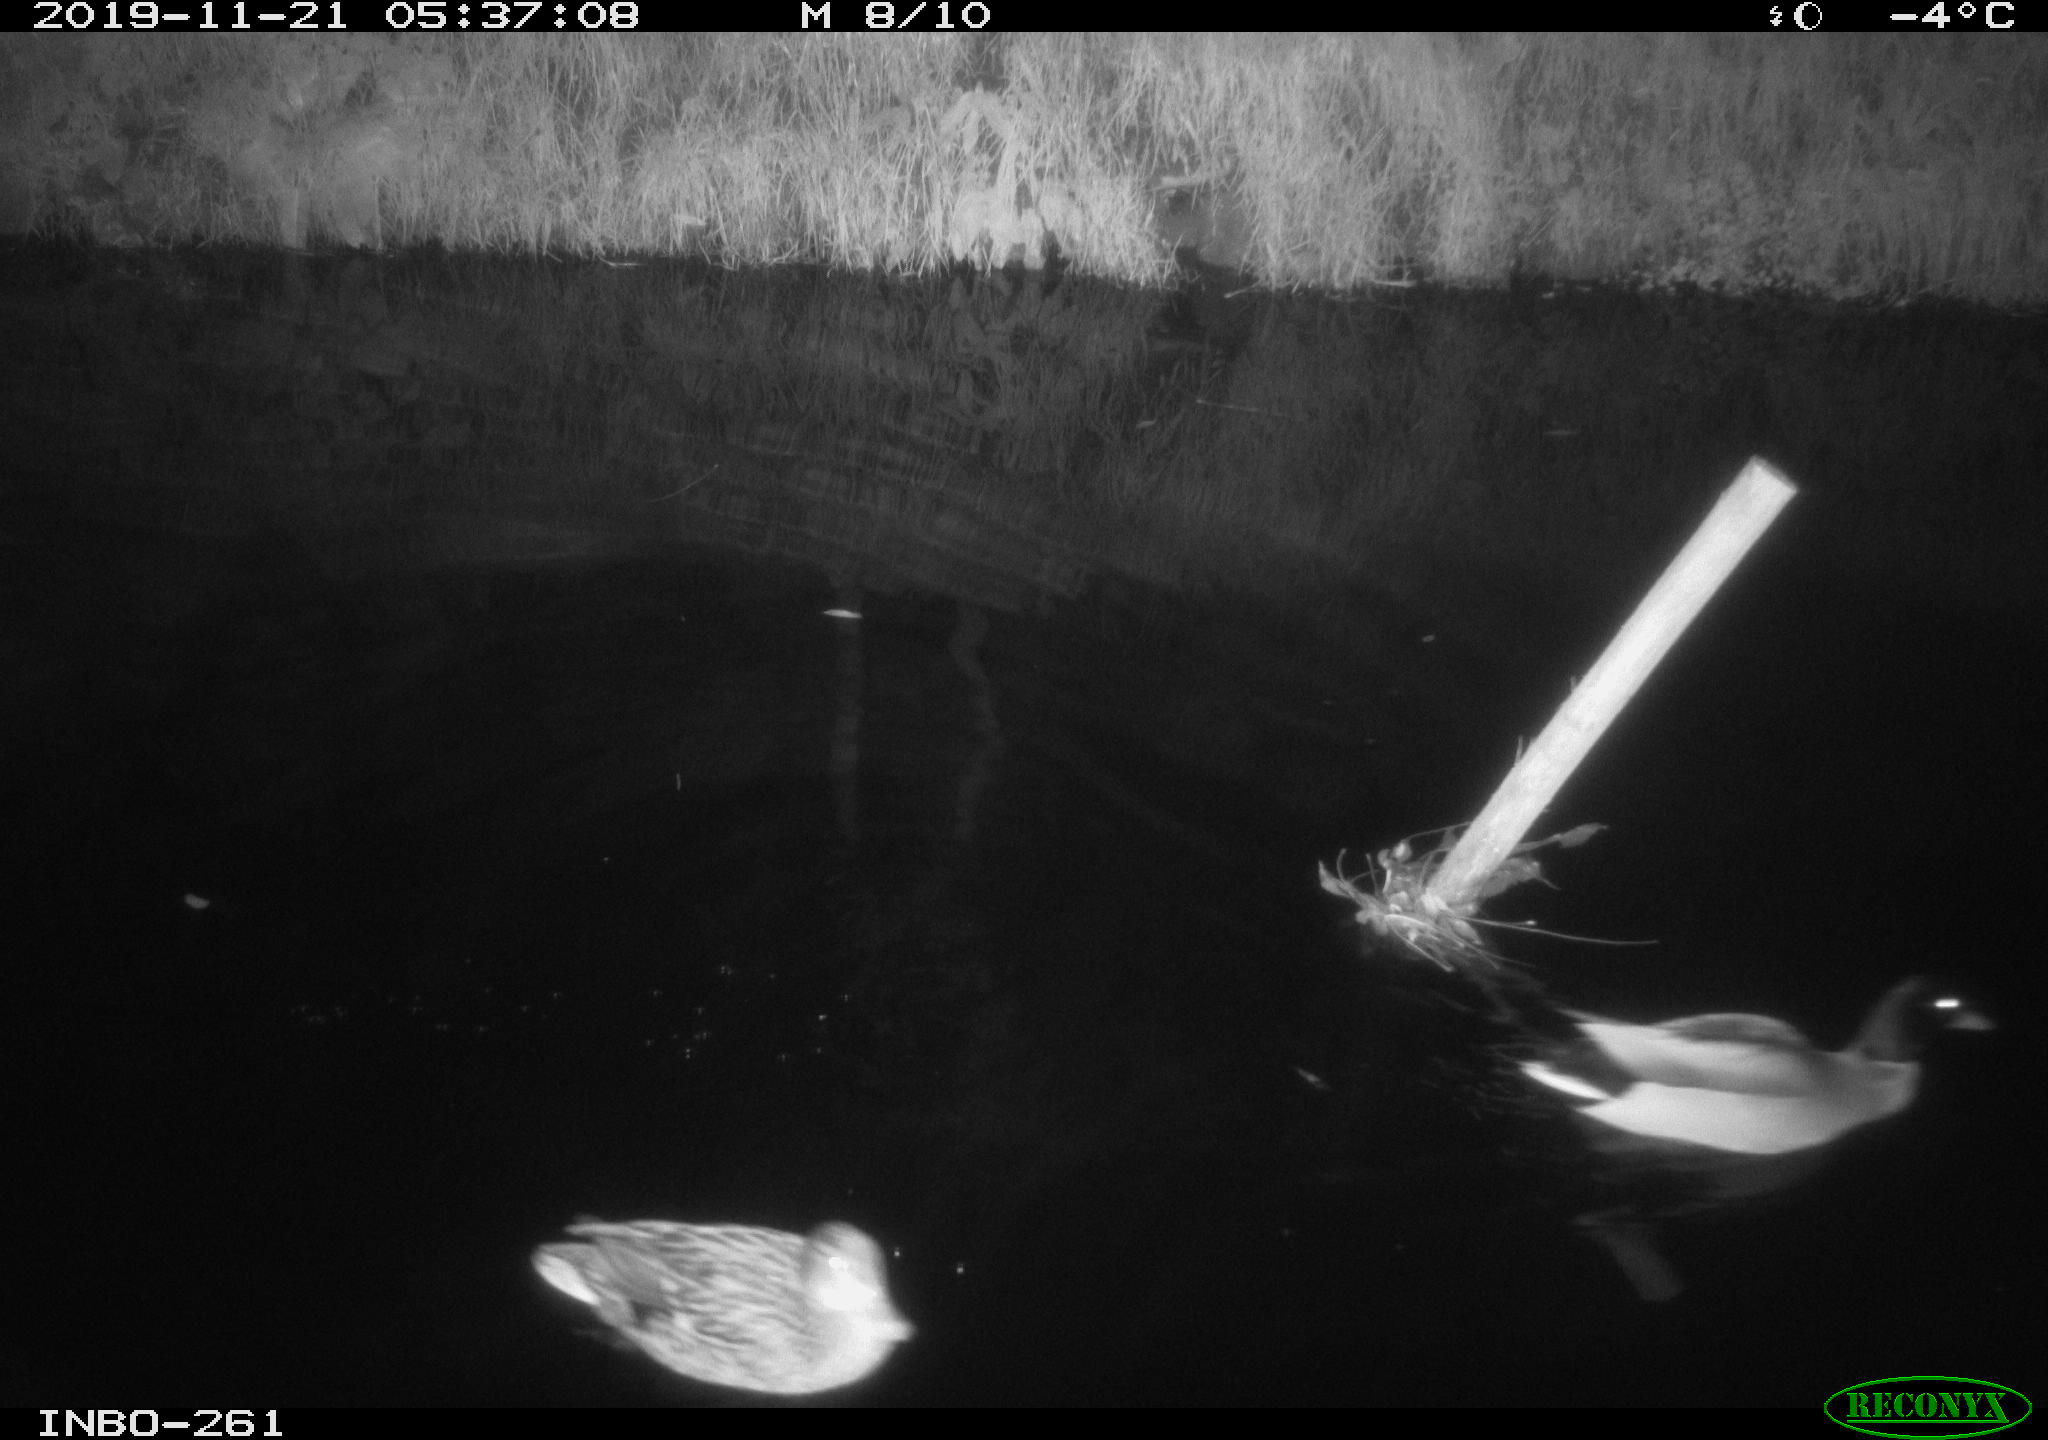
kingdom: Animalia
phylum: Chordata
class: Aves
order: Anseriformes
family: Anatidae
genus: Anas
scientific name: Anas platyrhynchos
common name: Mallard
